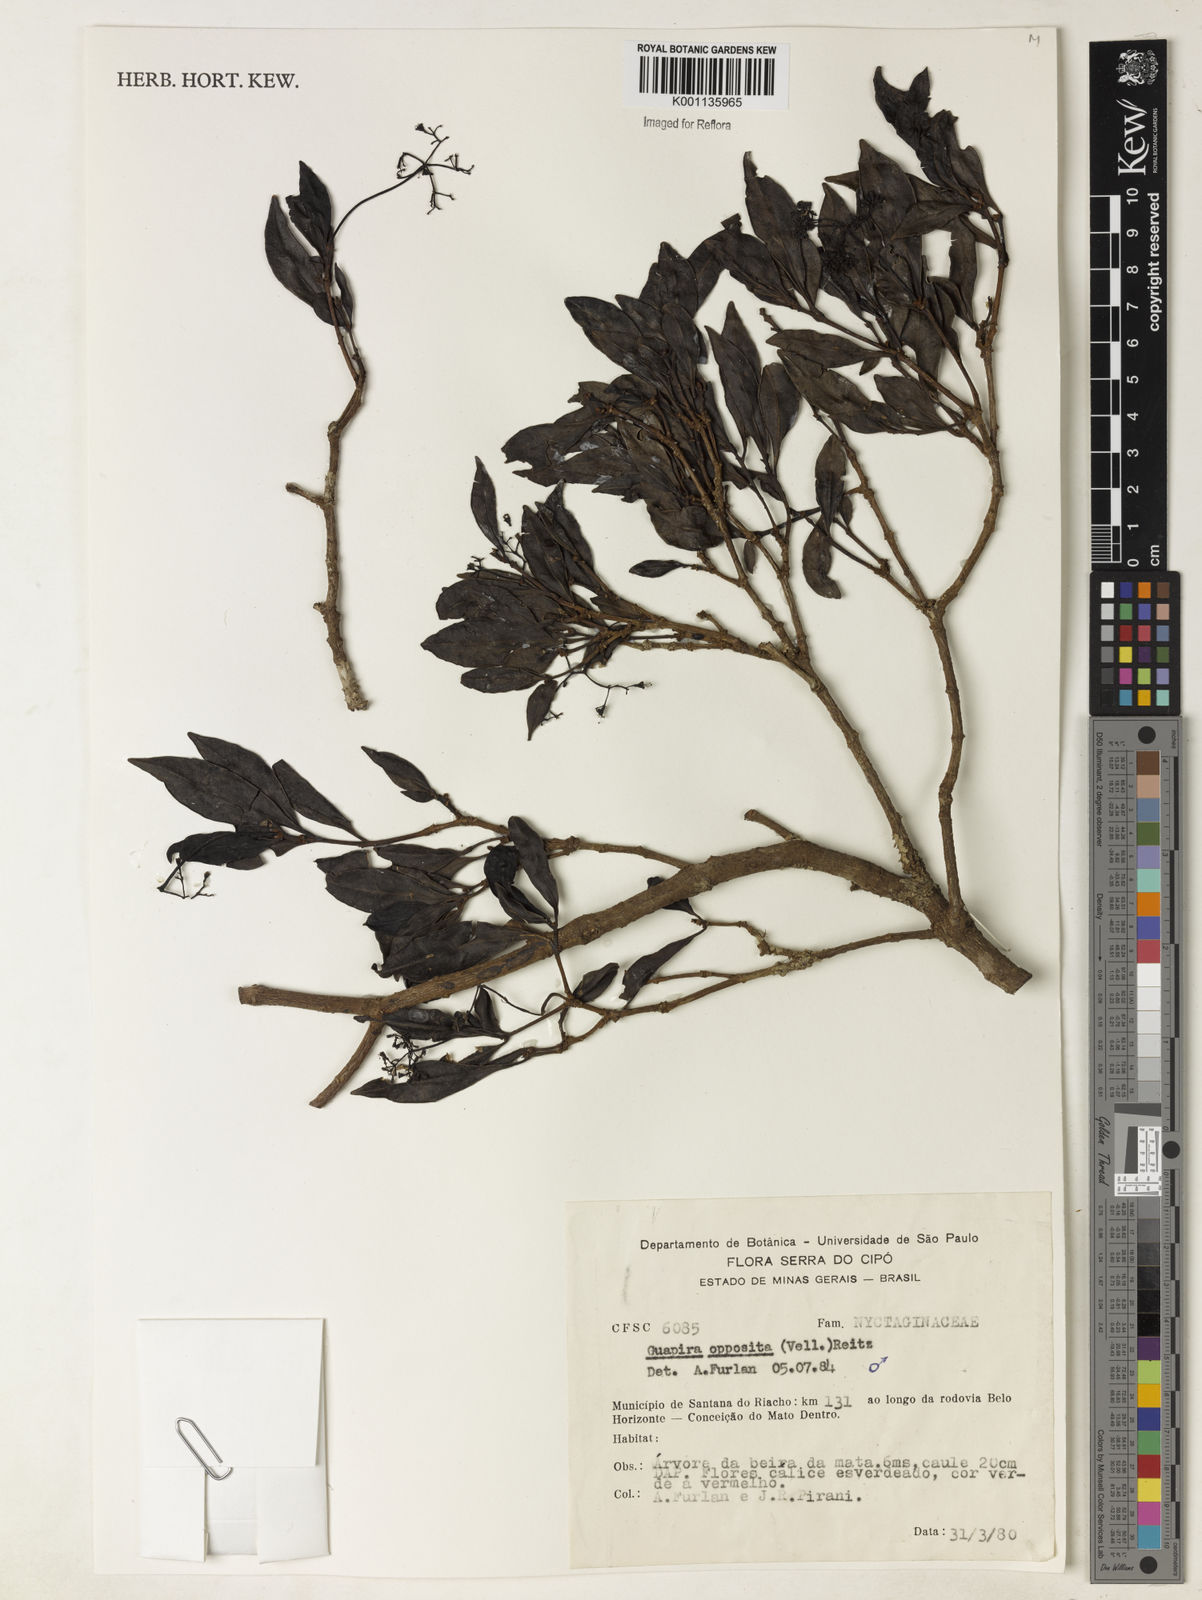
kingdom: Plantae
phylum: Tracheophyta
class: Magnoliopsida
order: Caryophyllales
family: Nyctaginaceae
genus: Guapira
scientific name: Guapira opposita
